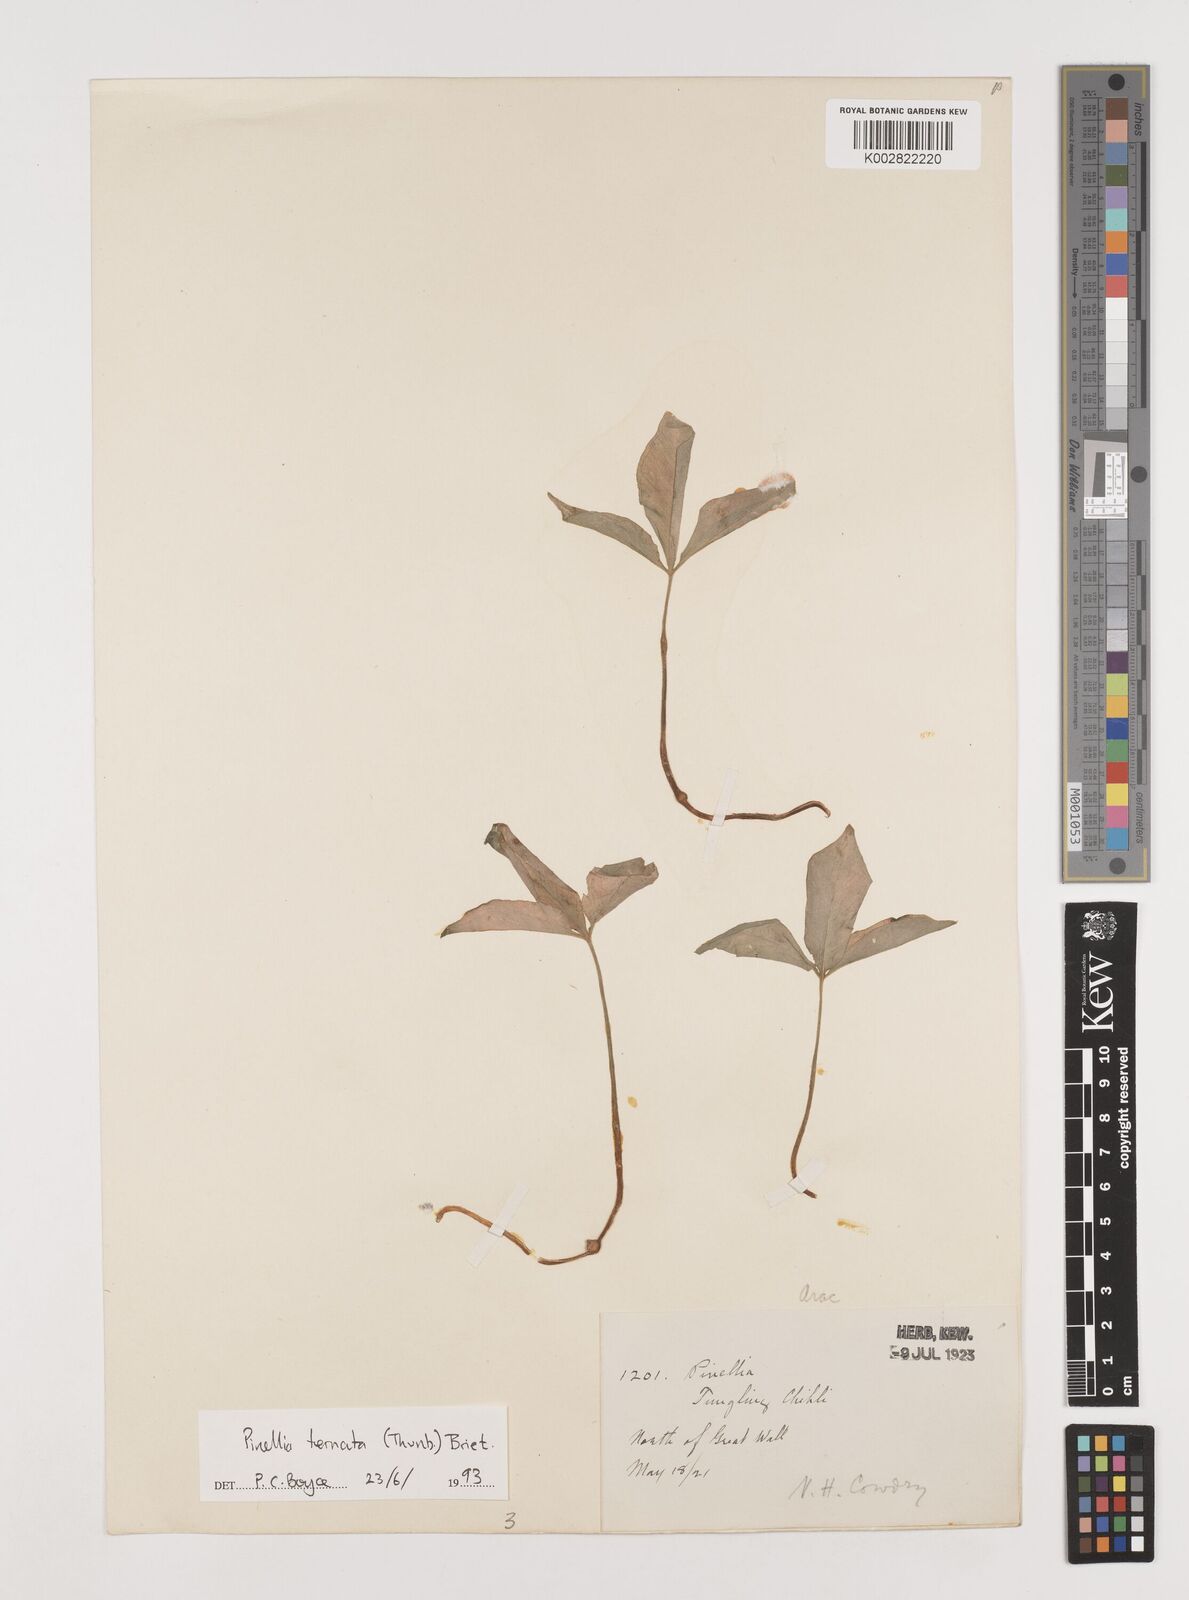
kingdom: Plantae
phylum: Tracheophyta
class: Liliopsida
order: Alismatales
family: Araceae
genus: Pinellia
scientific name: Pinellia ternata
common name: Pinellia
